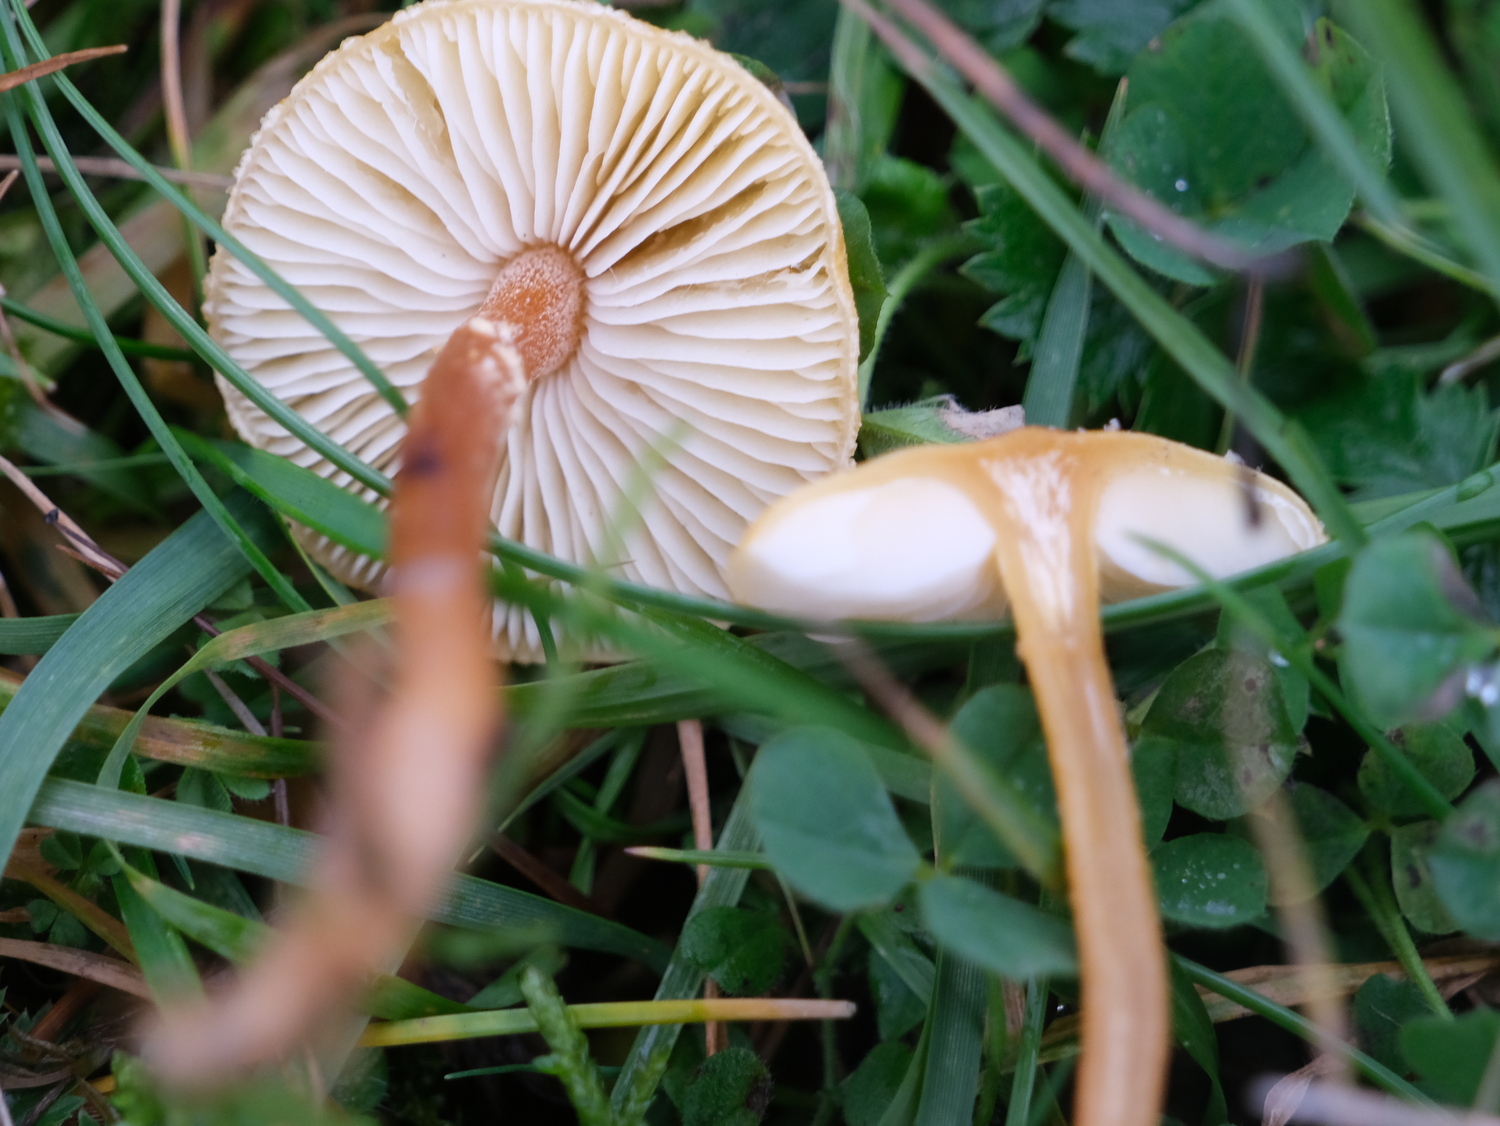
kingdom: Fungi
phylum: Basidiomycota
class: Agaricomycetes
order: Agaricales
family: Tricholomataceae
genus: Cystoderma
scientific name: Cystoderma amianthinum
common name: okkergul grynhat
